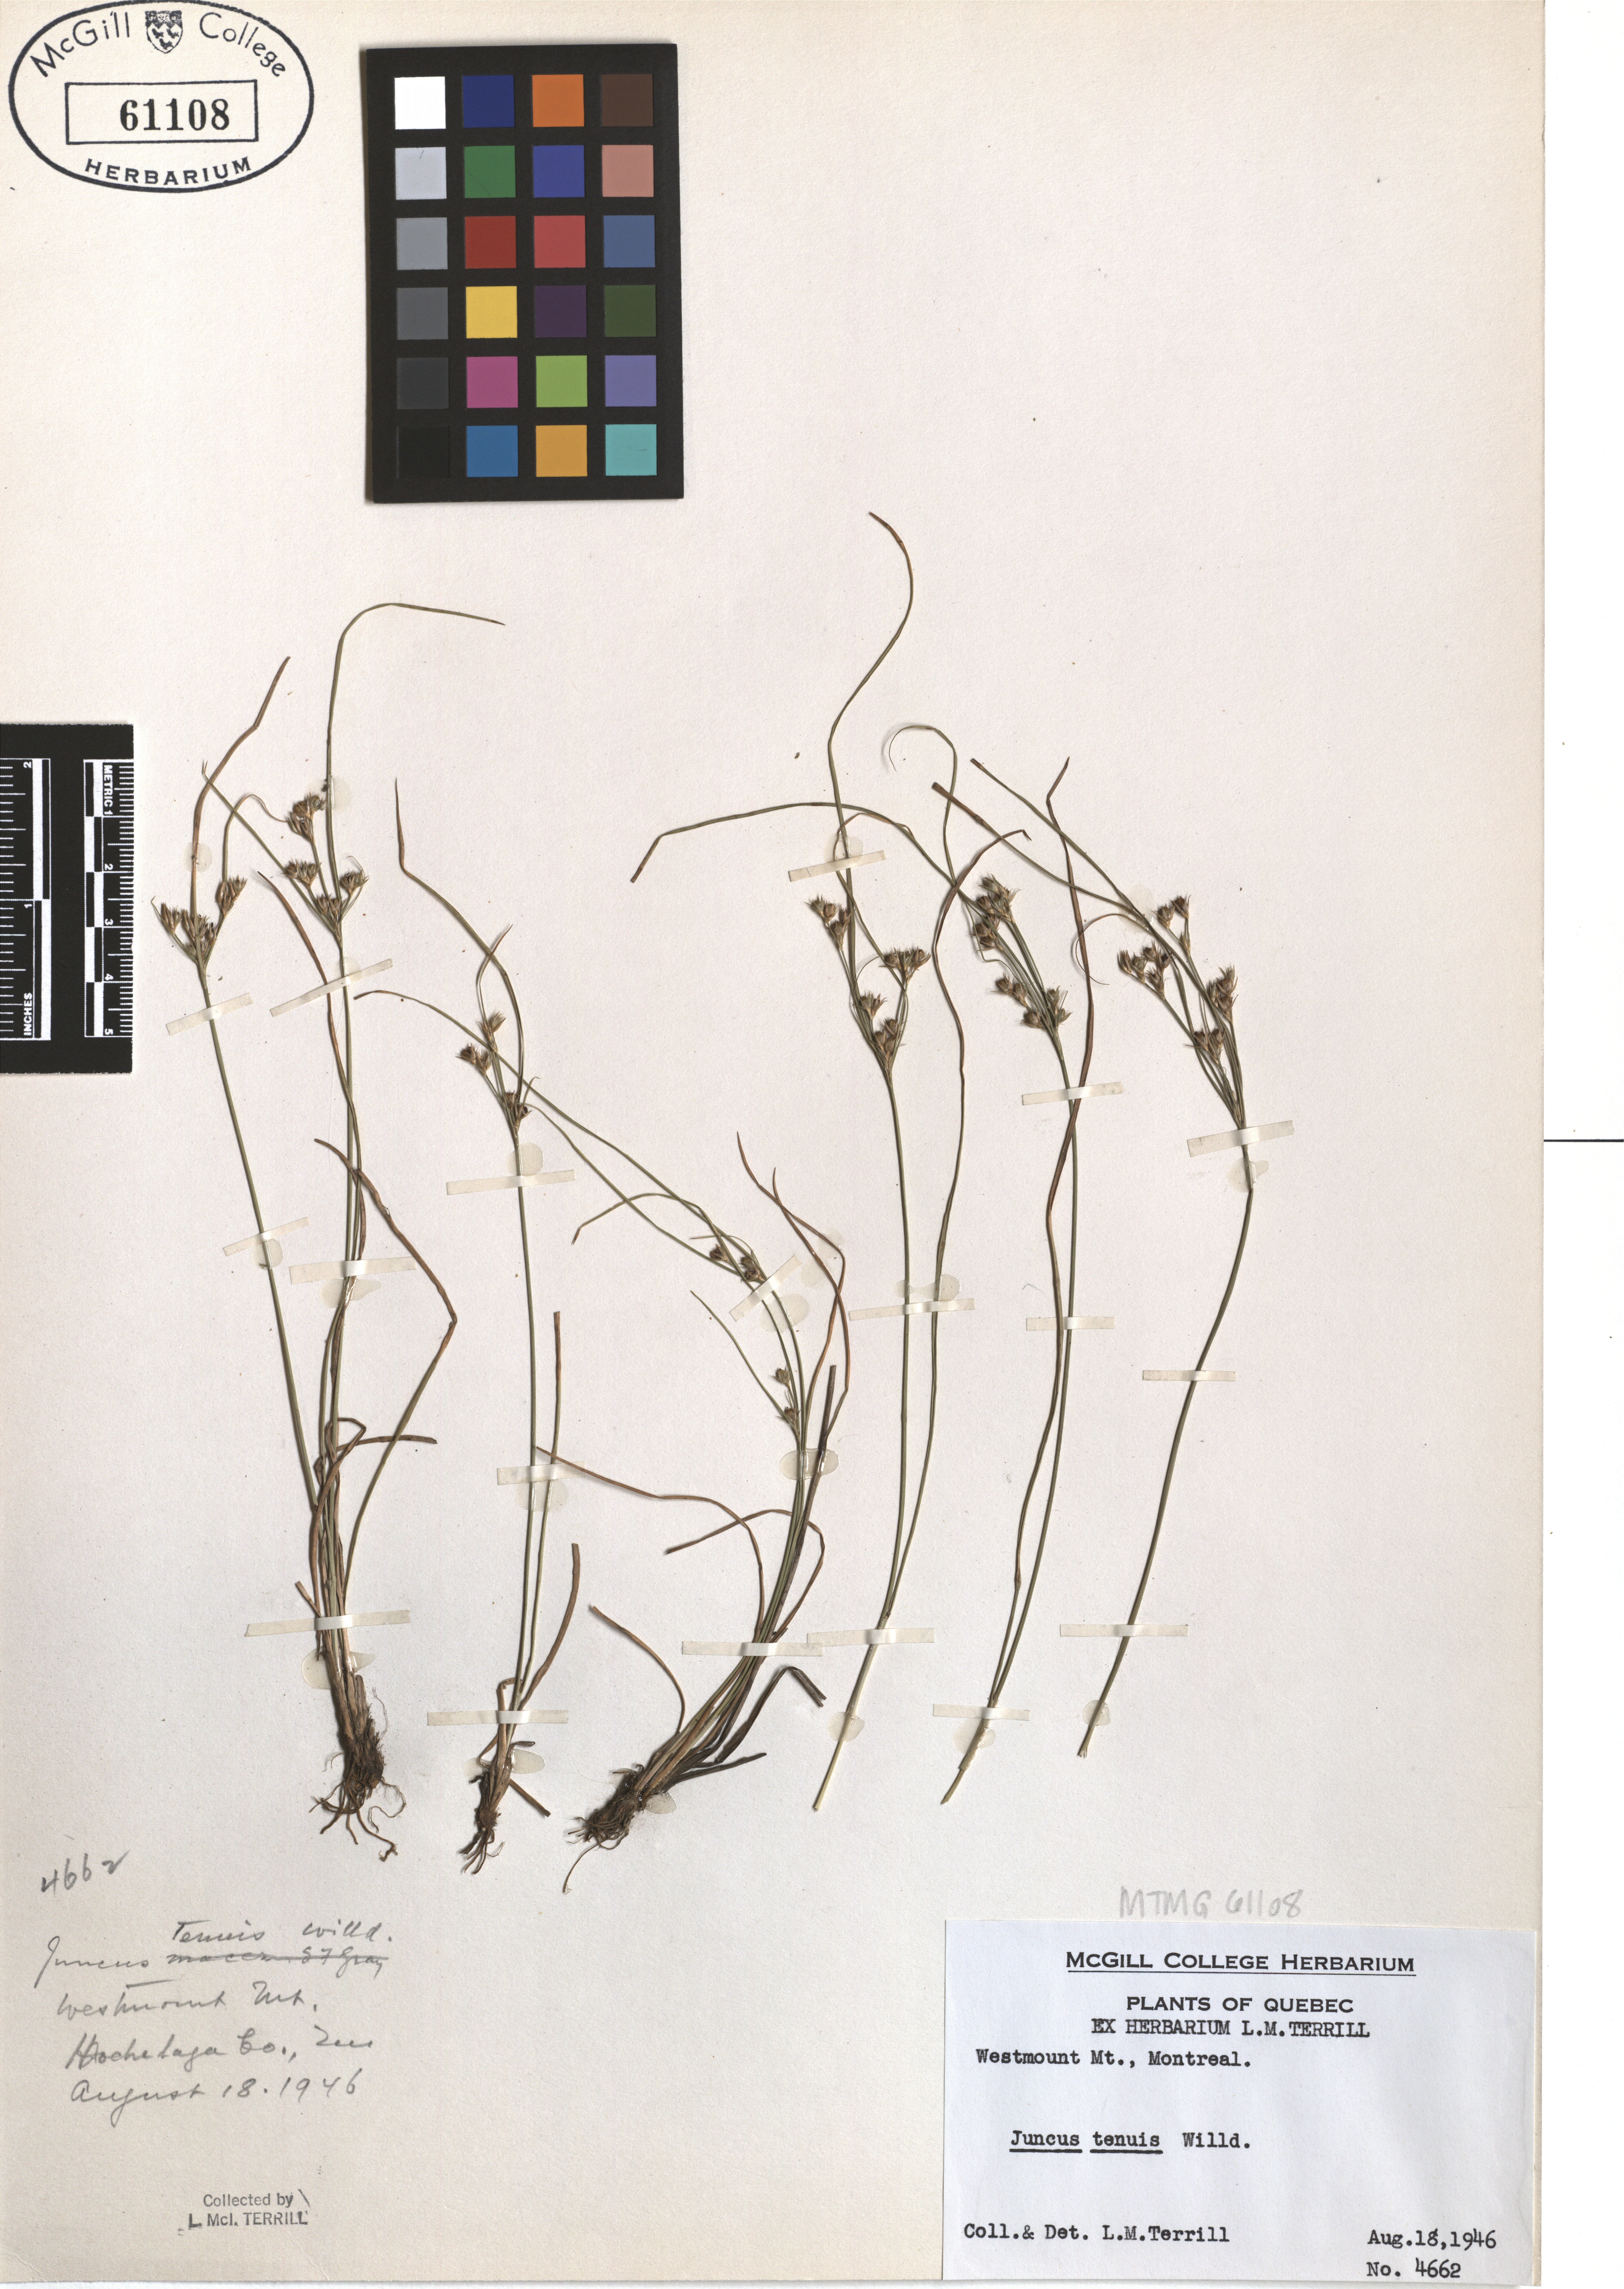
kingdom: Plantae
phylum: Tracheophyta
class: Liliopsida
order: Poales
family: Juncaceae
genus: Juncus
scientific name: Juncus tenuis
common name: Slender rush
